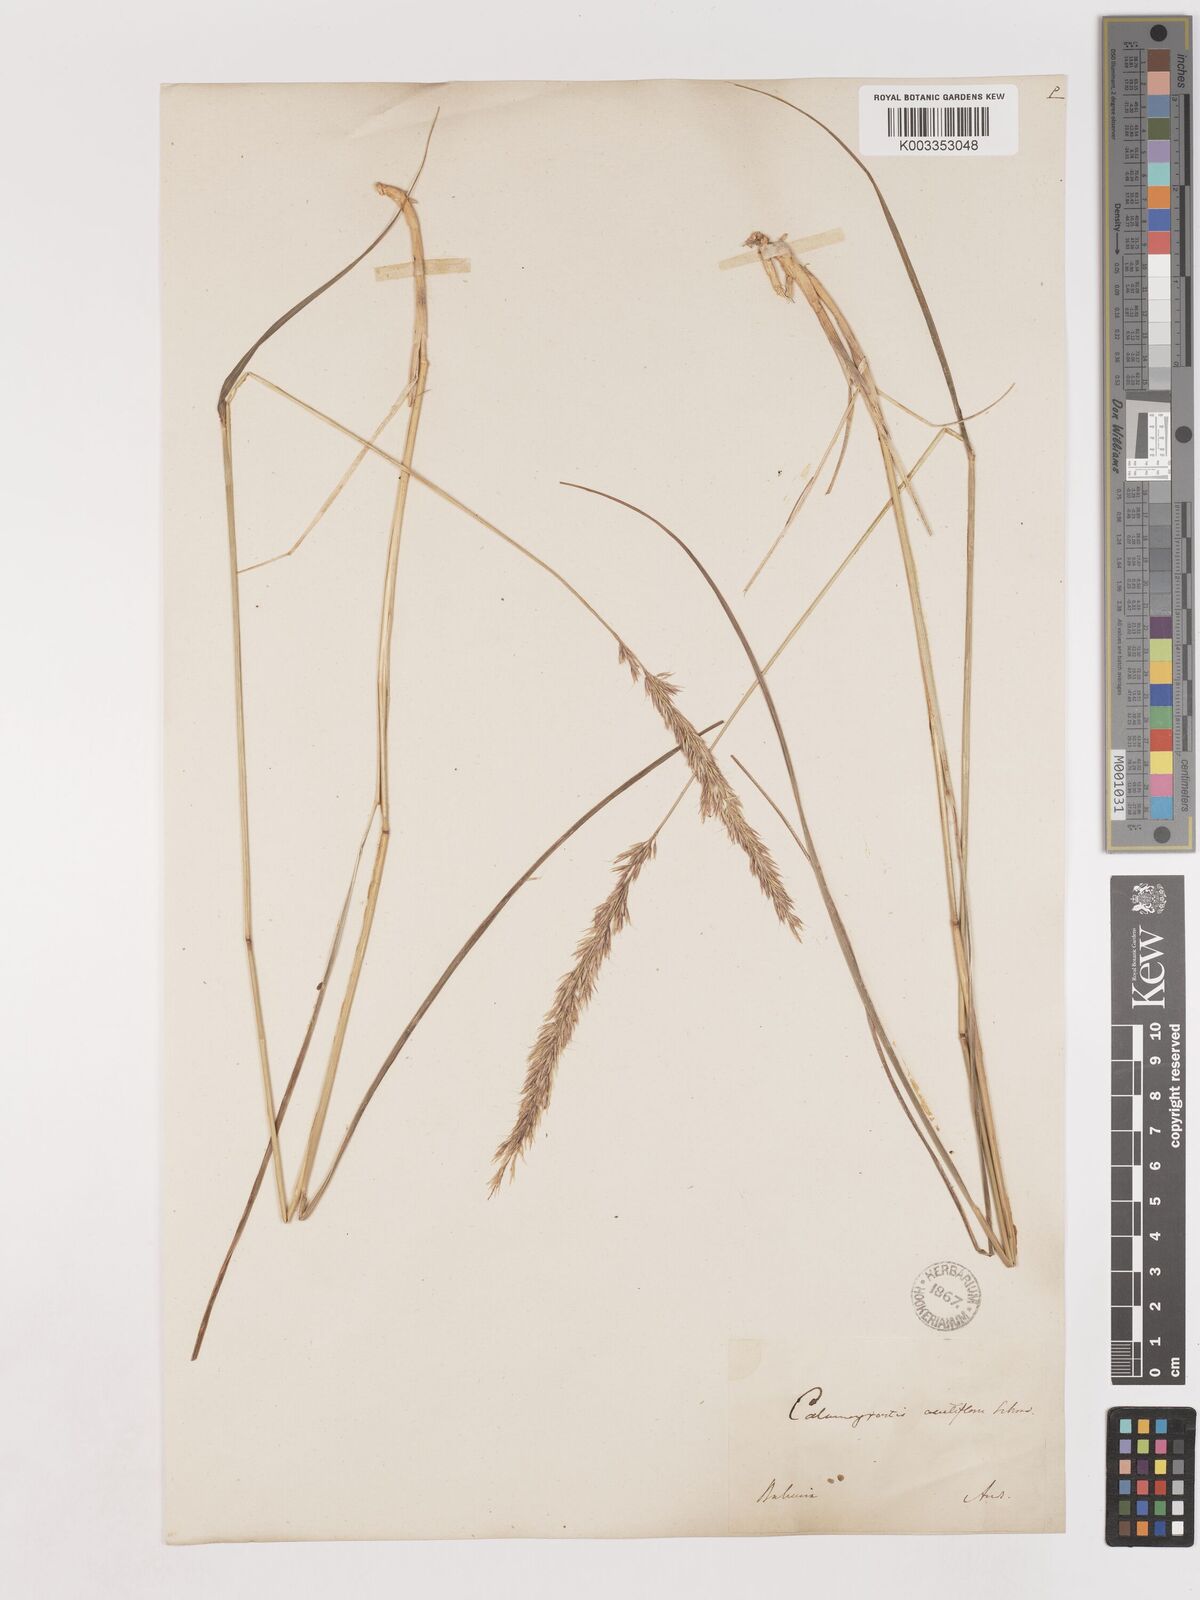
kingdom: Plantae
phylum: Tracheophyta
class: Liliopsida
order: Poales
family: Poaceae
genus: Calamagrostis
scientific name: Calamagrostis epigejos
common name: Wood small-reed
